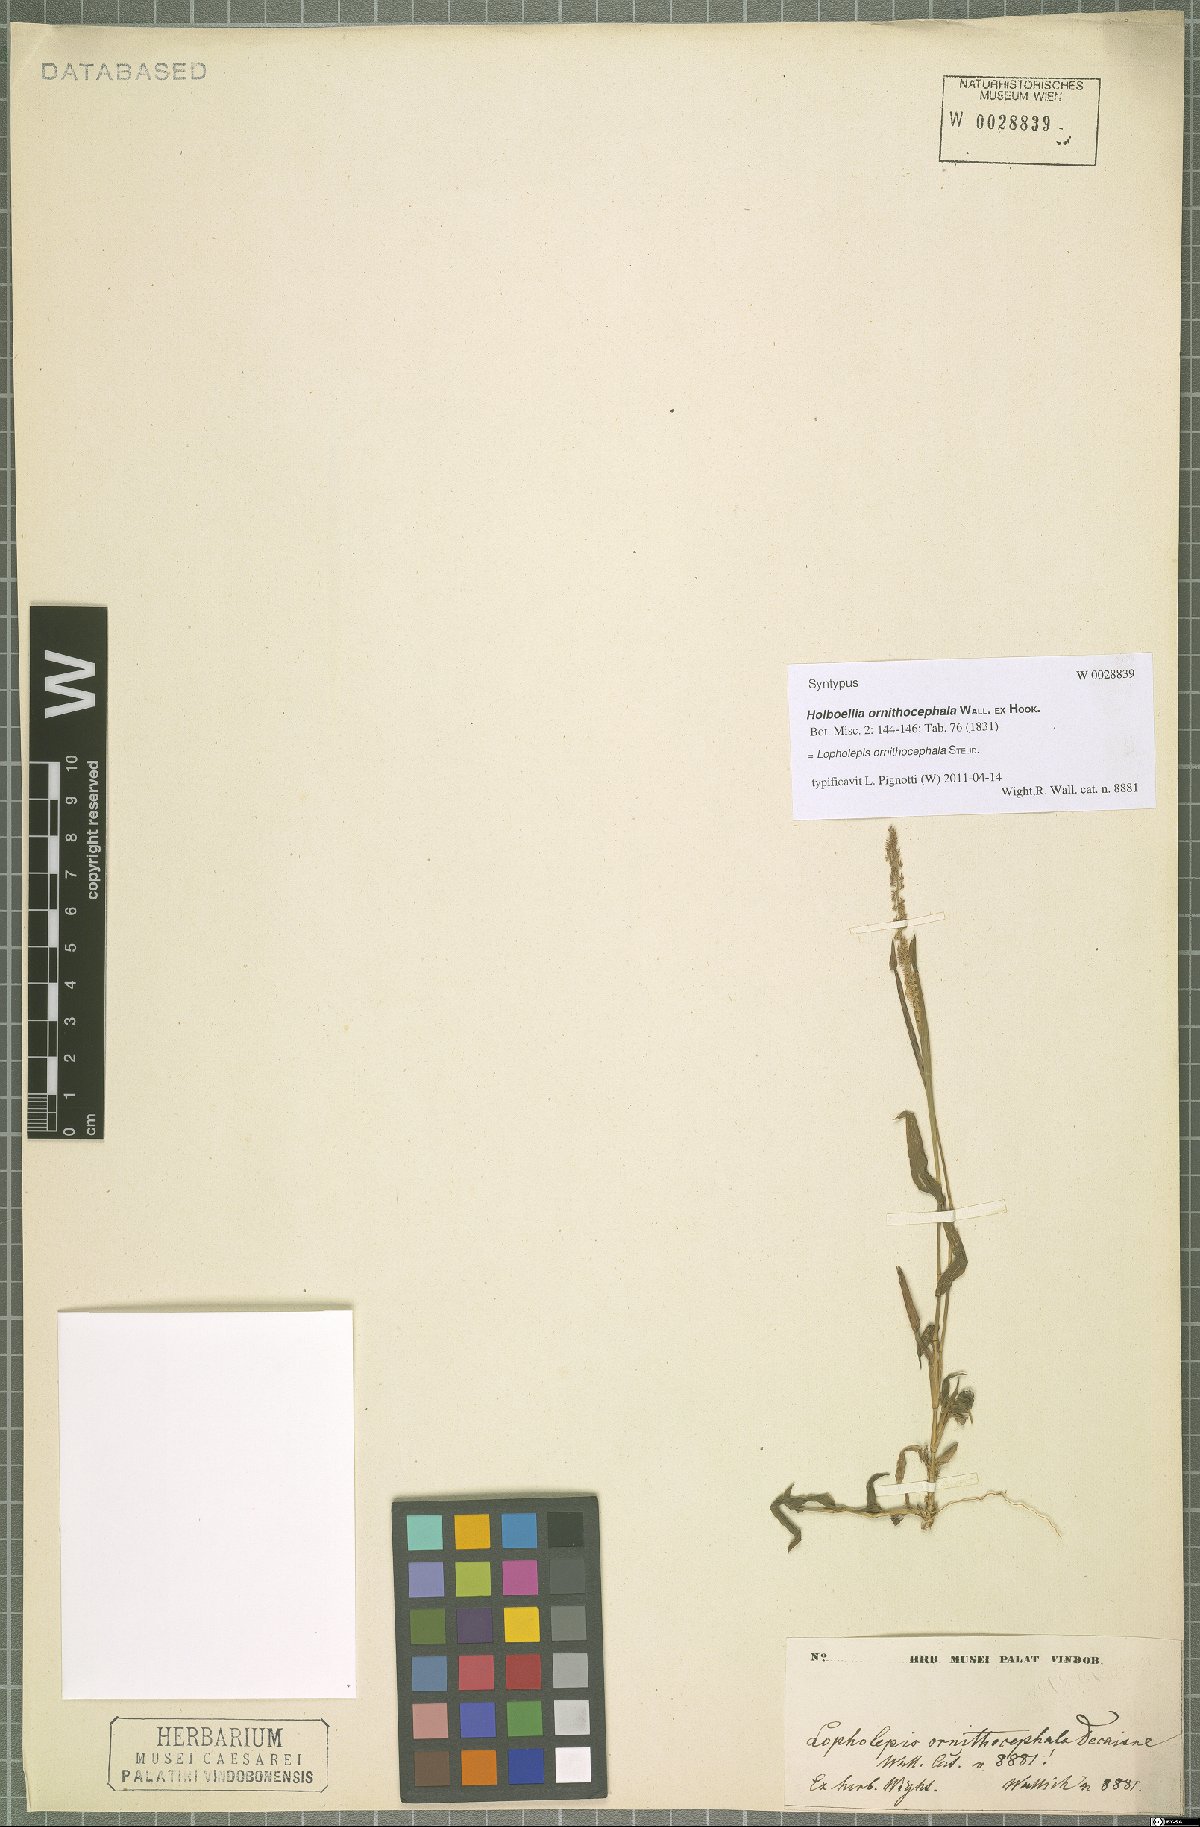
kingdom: Plantae
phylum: Tracheophyta
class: Liliopsida
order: Poales
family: Poaceae
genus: Perotis
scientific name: Perotis ornithocephala
